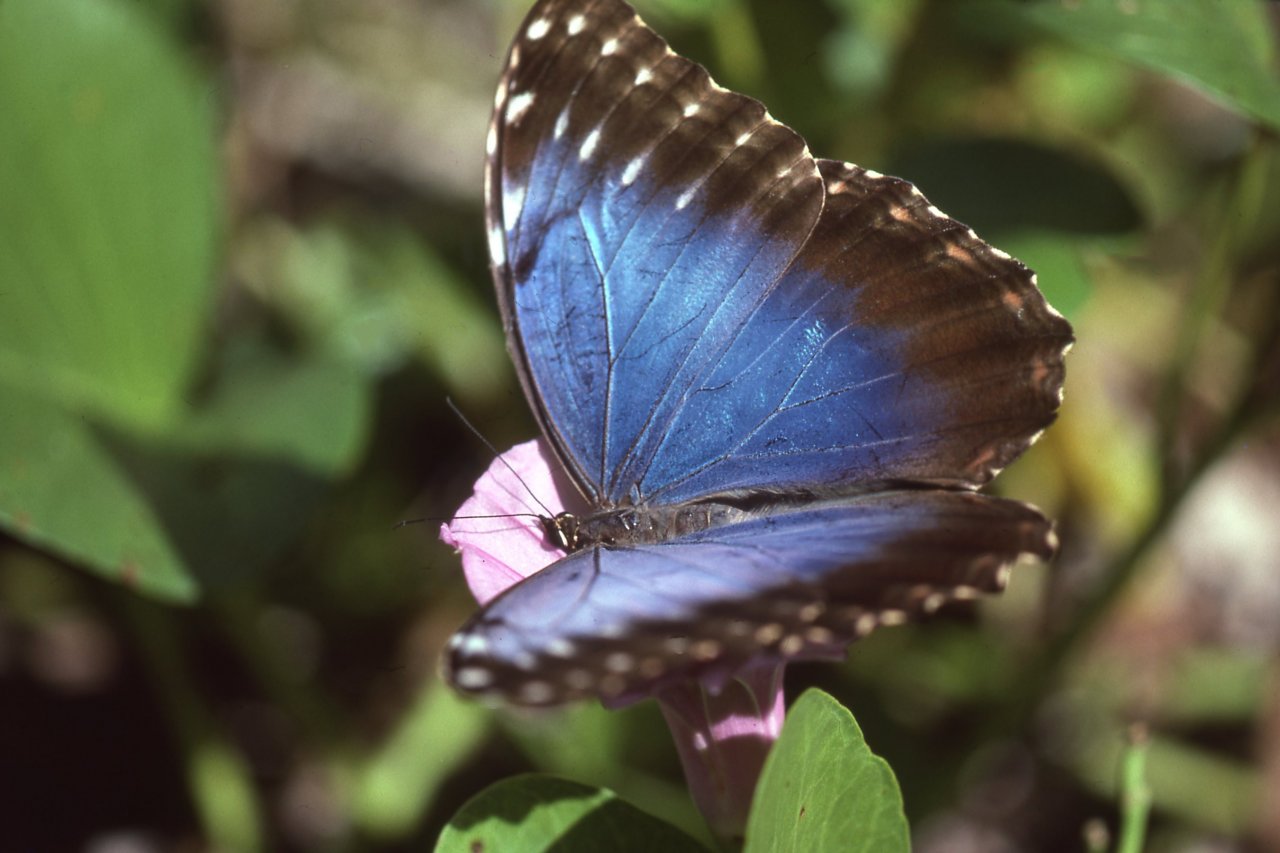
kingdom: Animalia
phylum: Arthropoda
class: Insecta
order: Lepidoptera
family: Nymphalidae
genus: Morpho
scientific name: Morpho helenor
